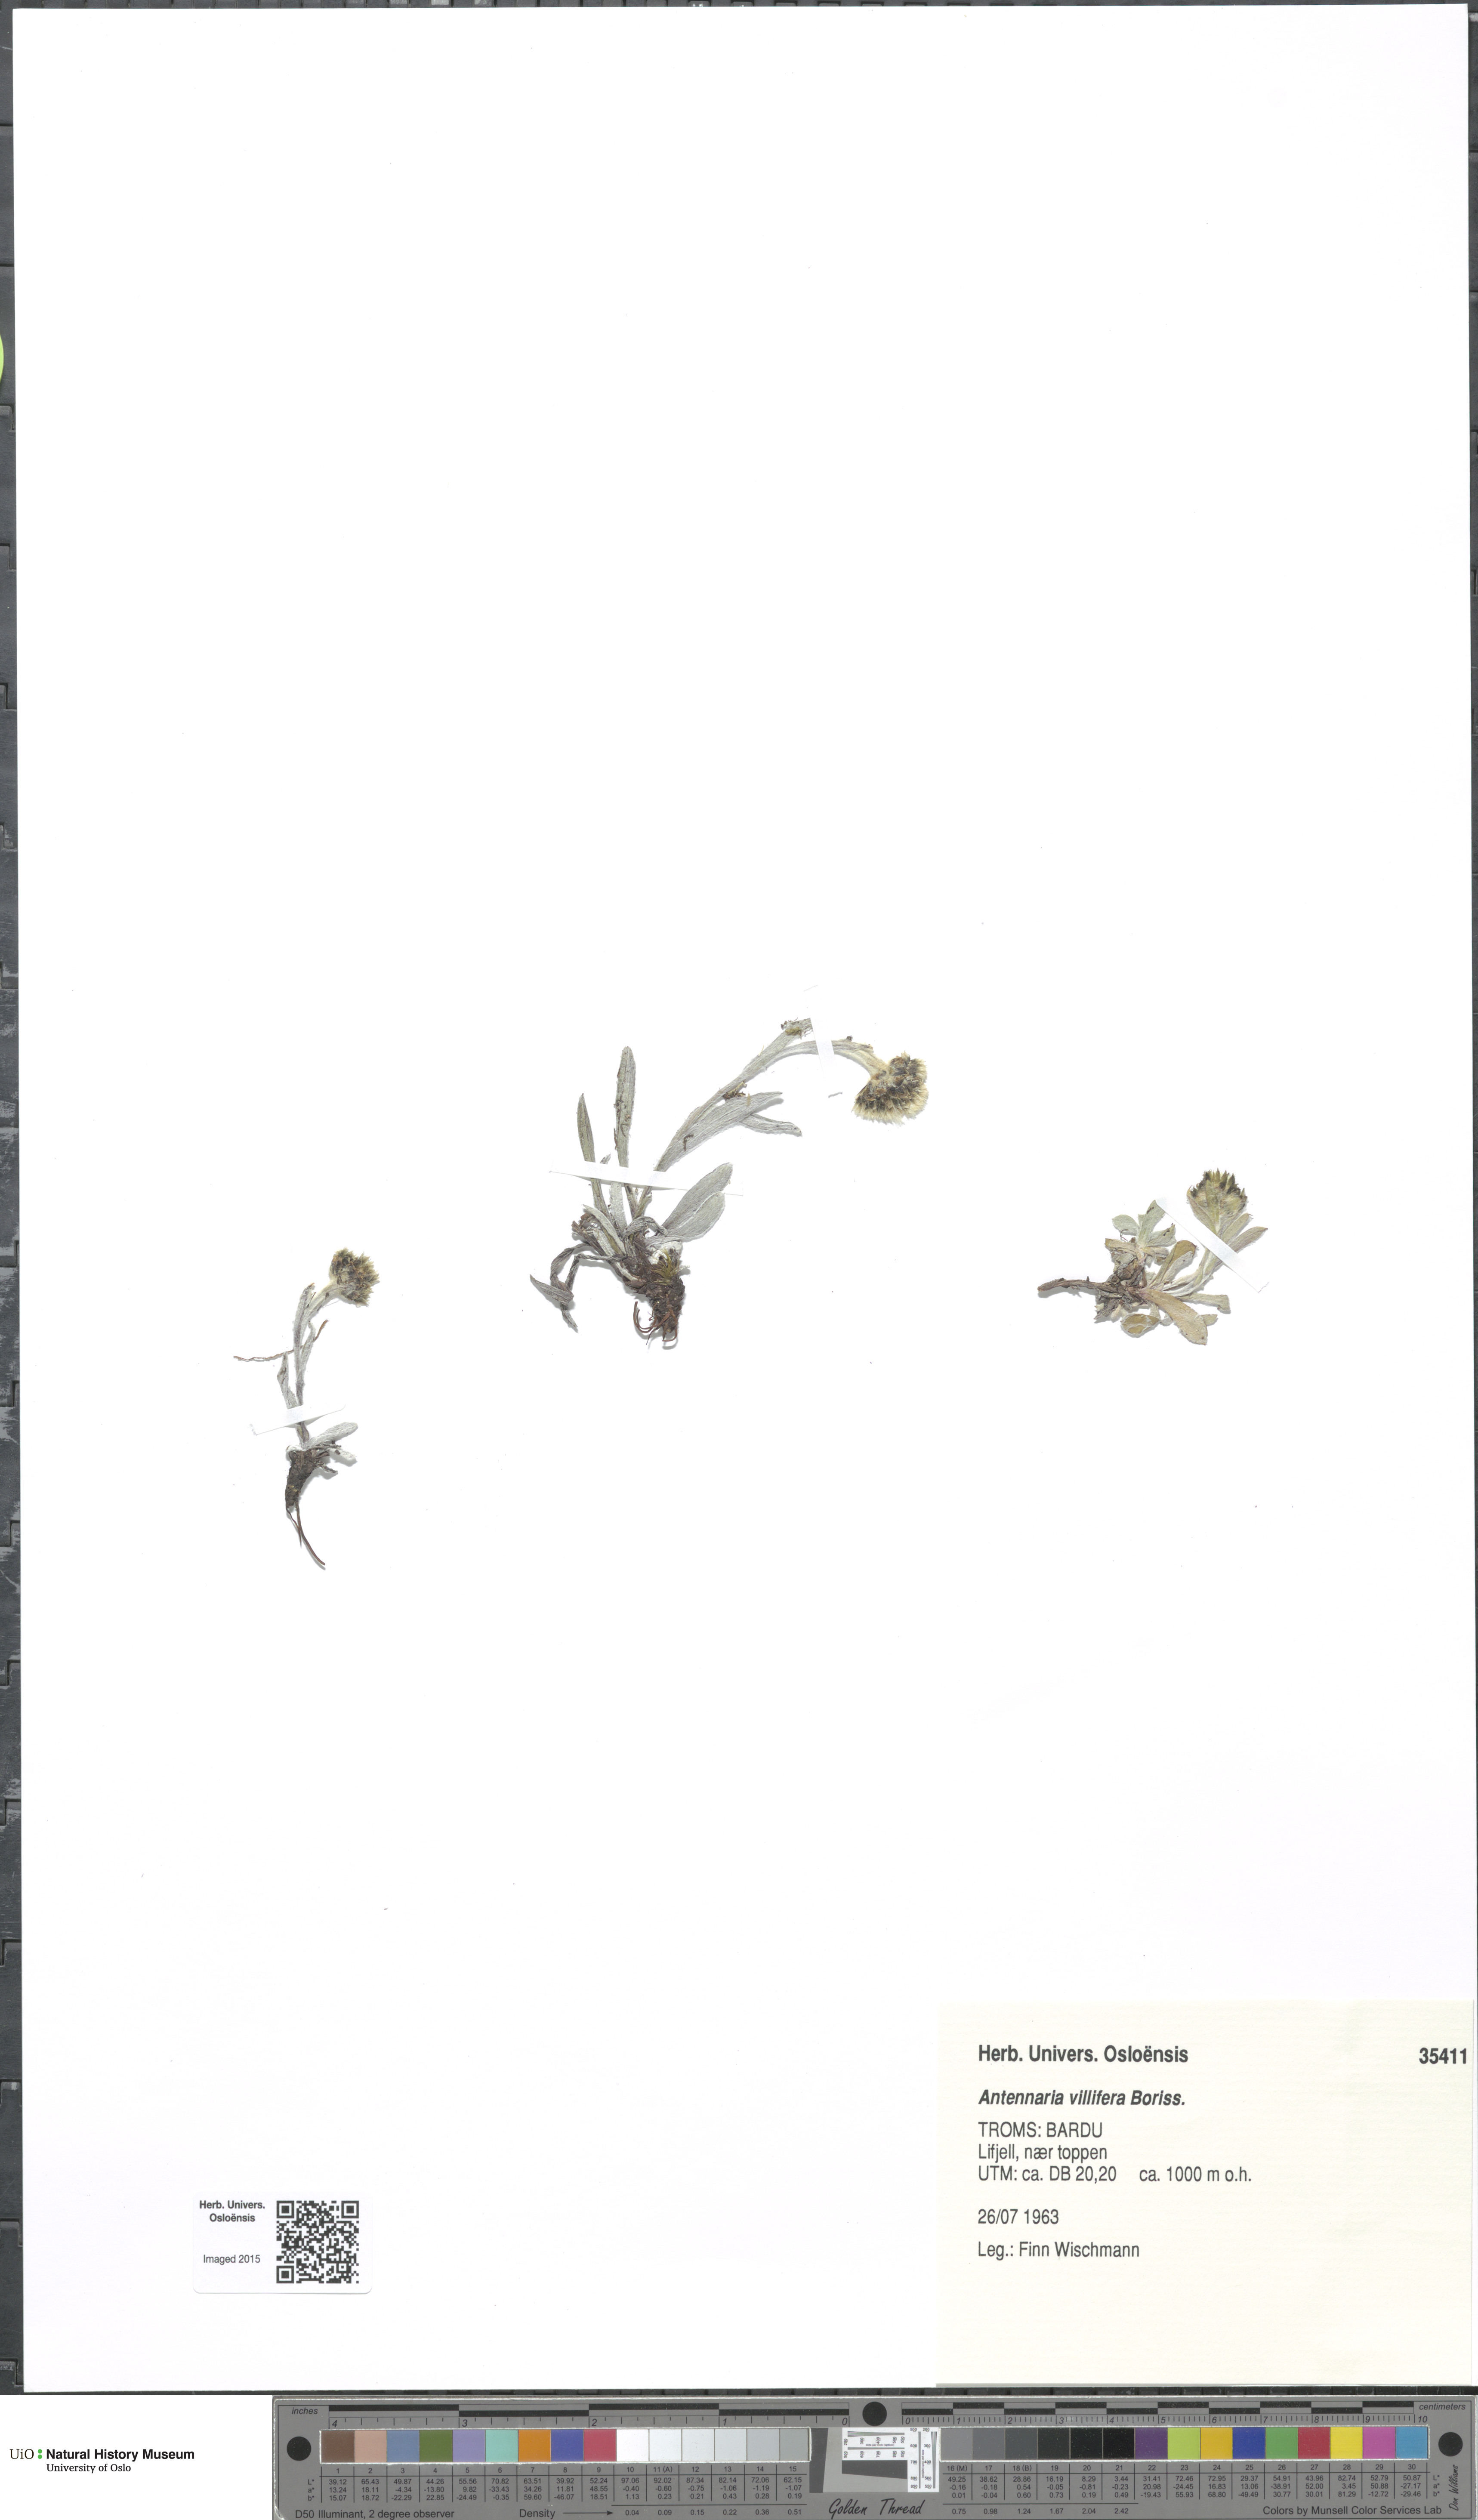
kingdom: Plantae
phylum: Tracheophyta
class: Magnoliopsida
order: Asterales
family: Asteraceae
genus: Antennaria
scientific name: Antennaria lanata
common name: Woolly pussytoes
